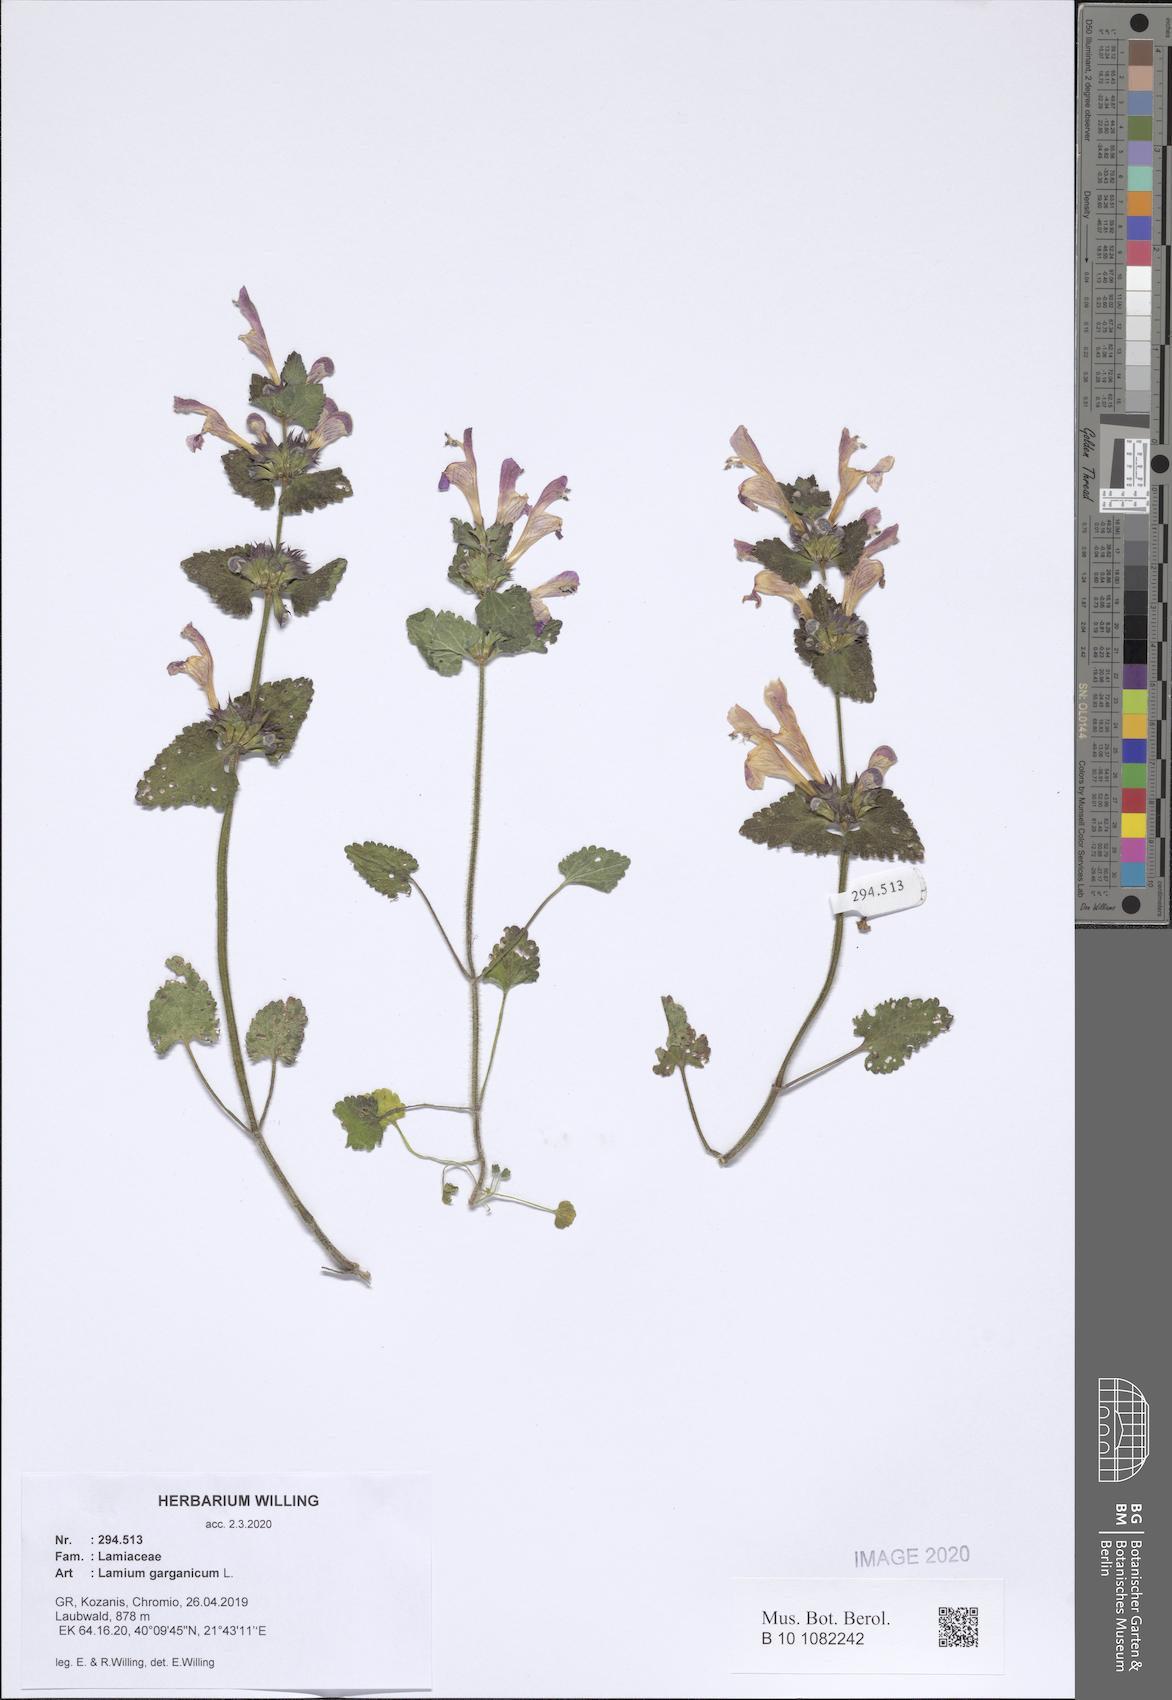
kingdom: Plantae
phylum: Tracheophyta
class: Magnoliopsida
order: Lamiales
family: Lamiaceae
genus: Lamium
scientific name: Lamium garganicum
